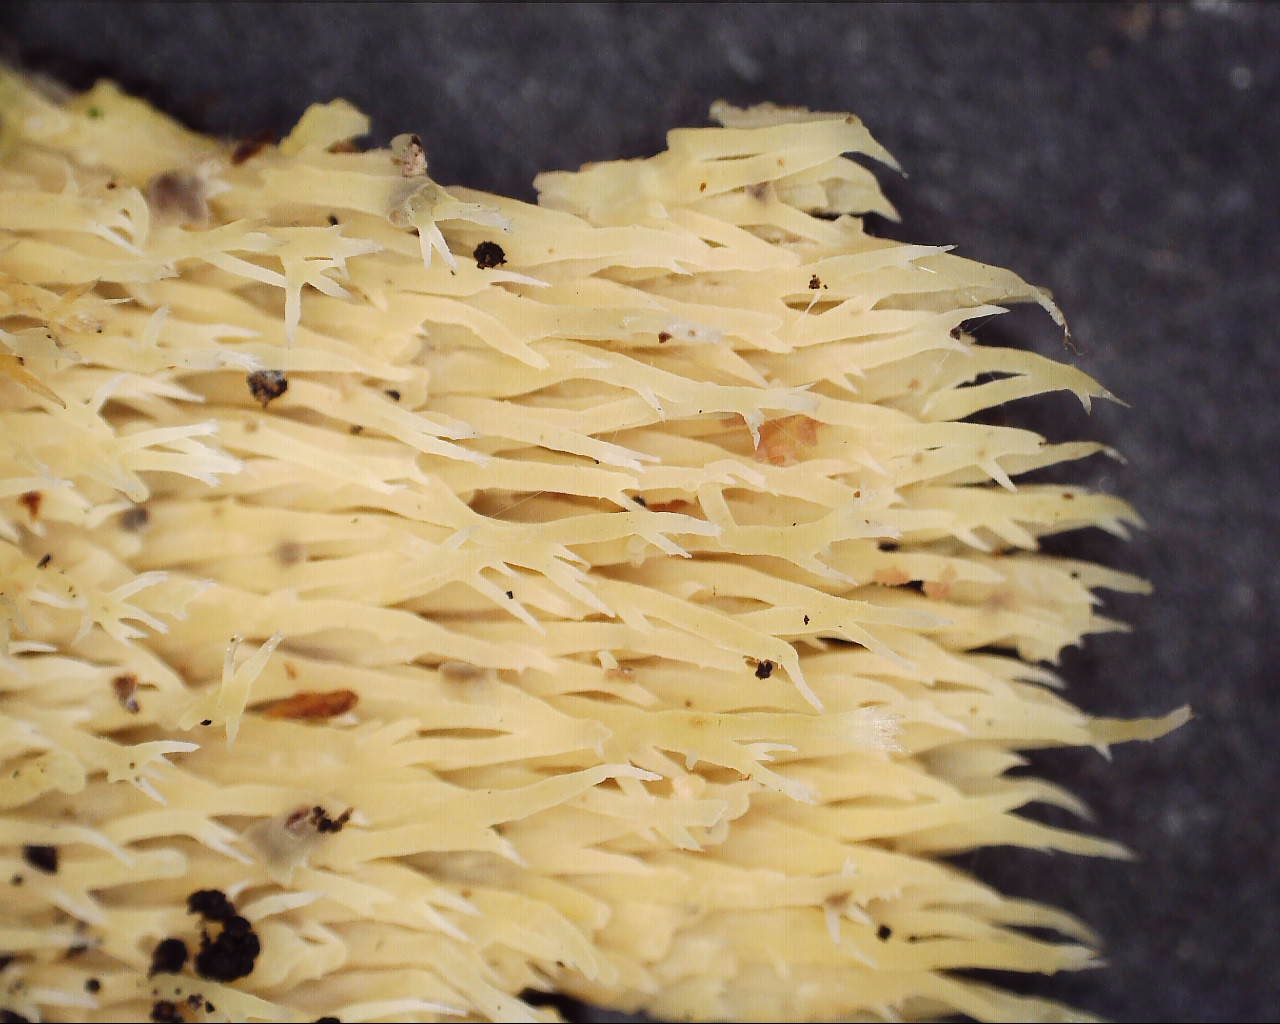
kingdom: Fungi
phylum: Basidiomycota
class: Agaricomycetes
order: Polyporales
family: Meruliaceae
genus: Mycoacia
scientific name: Mycoacia uda
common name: citrongul vokspig
